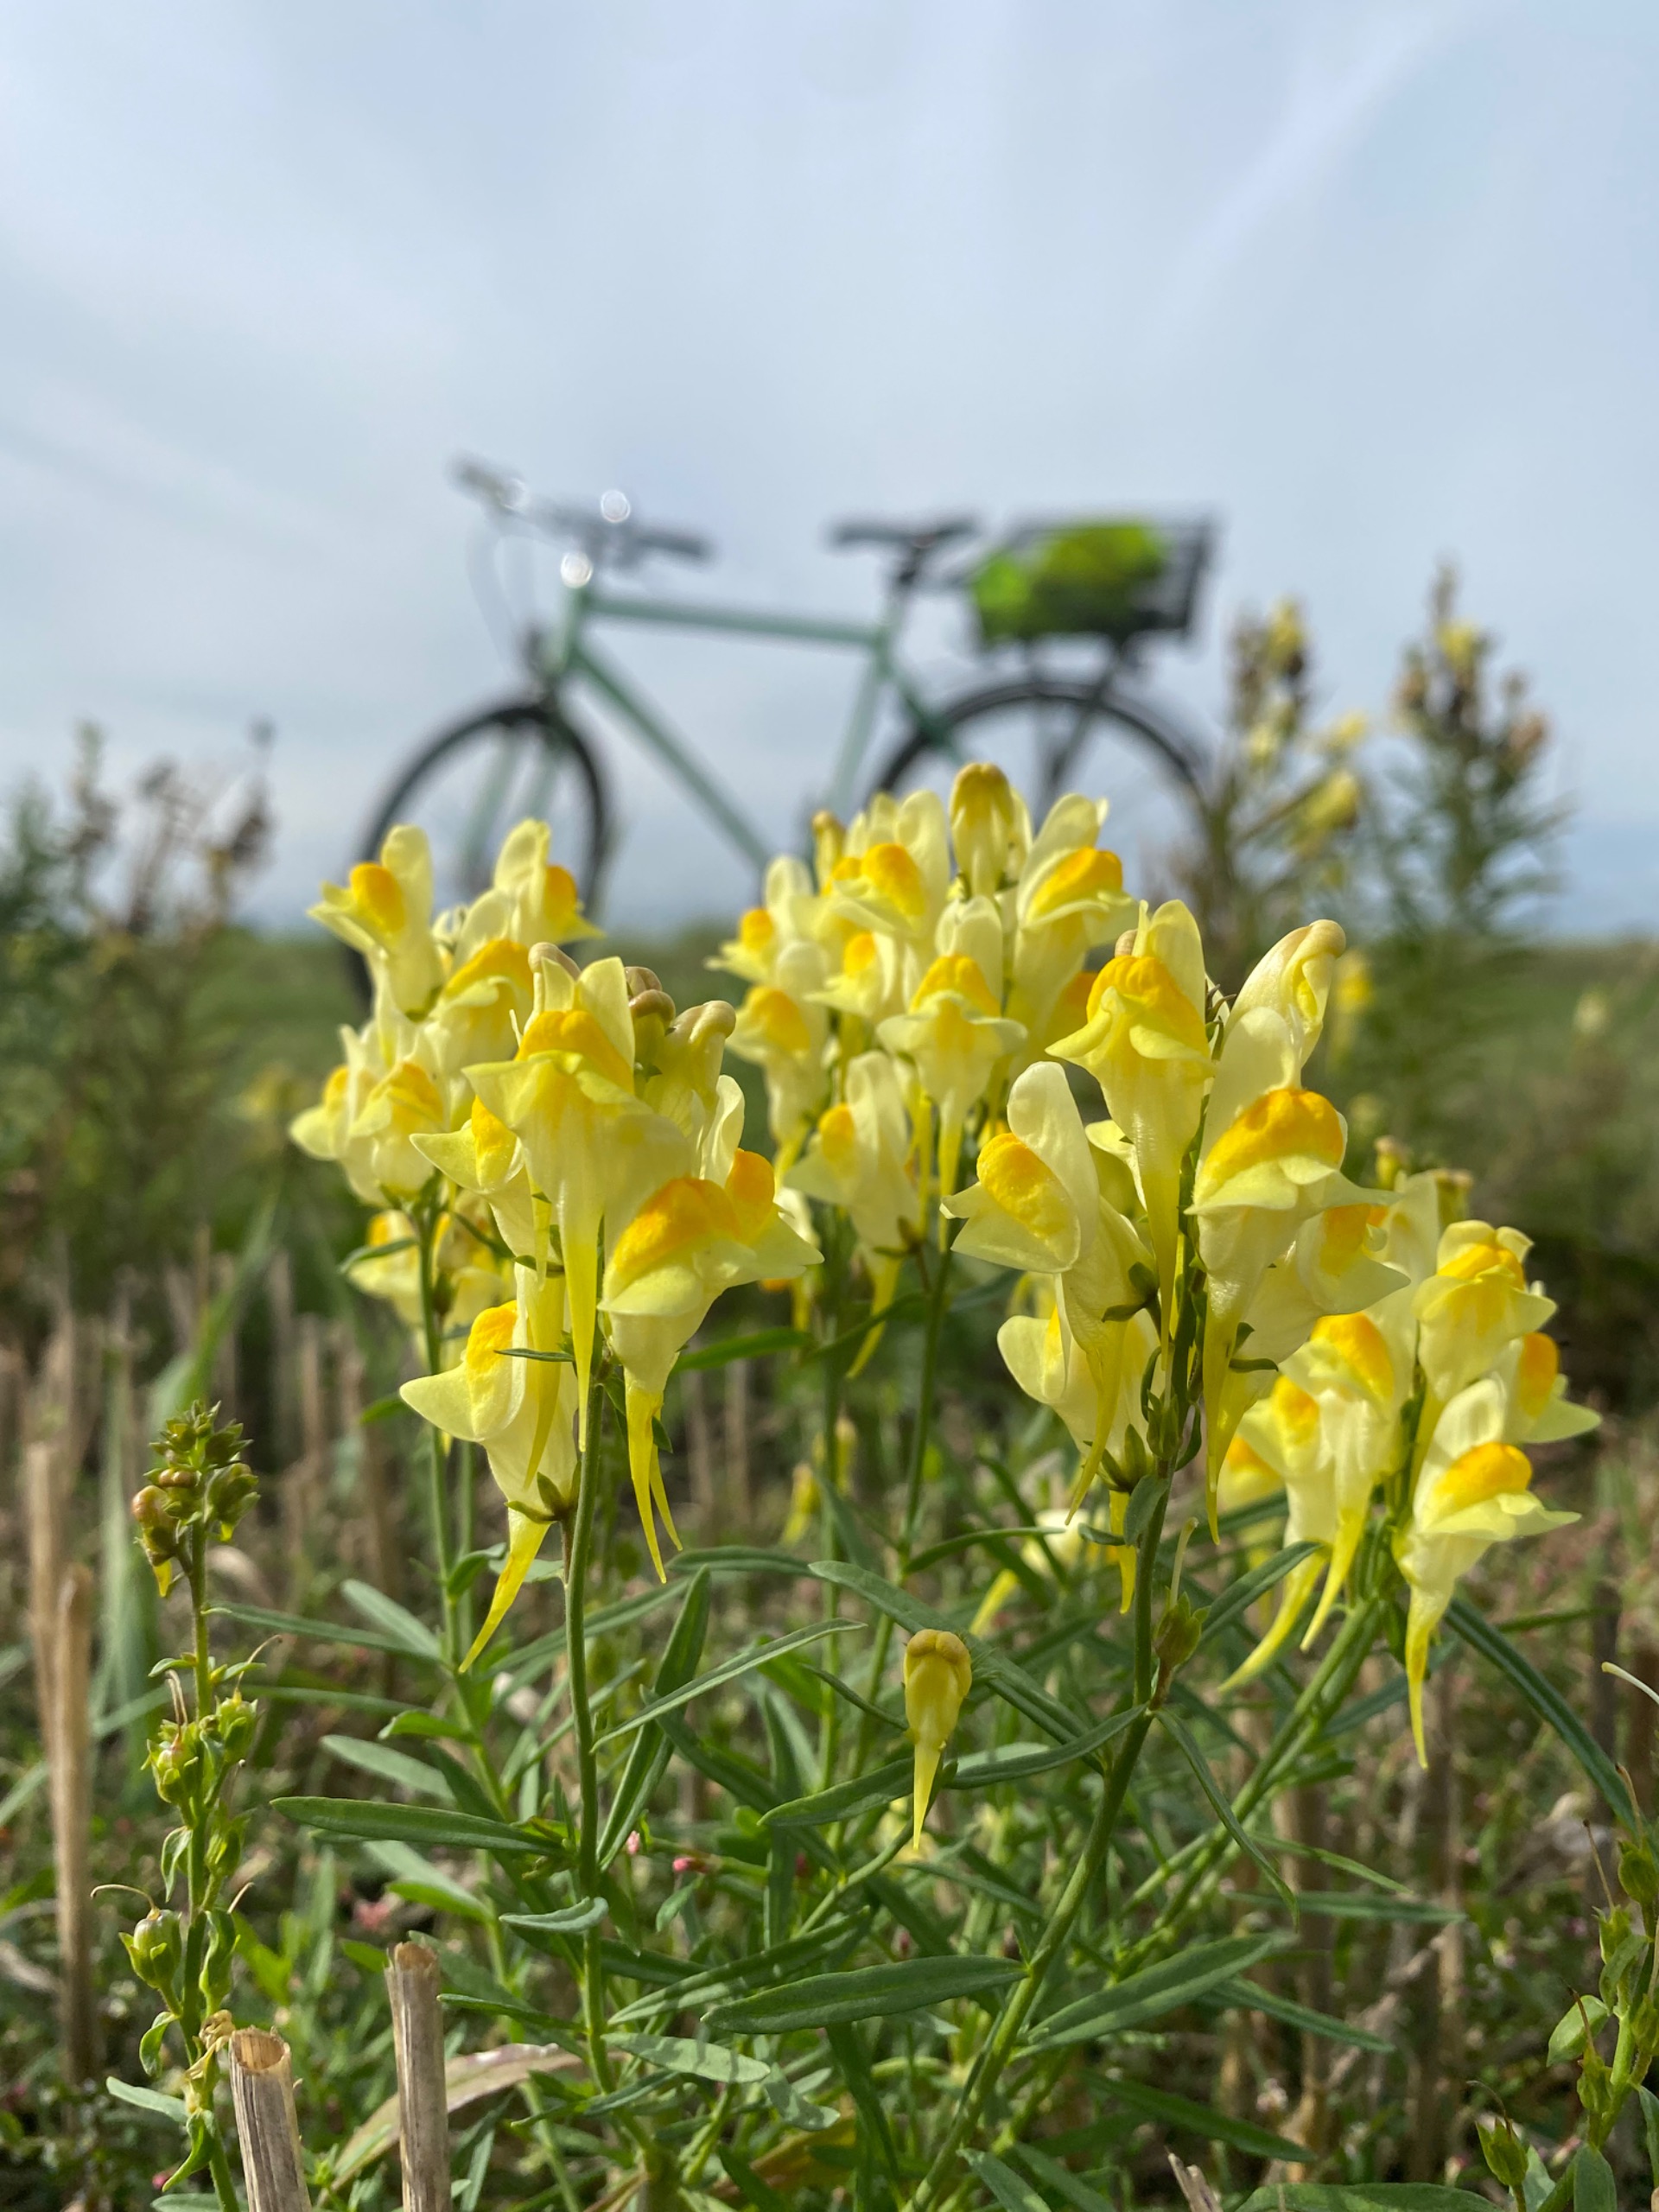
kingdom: Plantae
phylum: Tracheophyta
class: Magnoliopsida
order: Lamiales
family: Plantaginaceae
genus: Linaria
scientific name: Linaria vulgaris
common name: Almindelig torskemund
